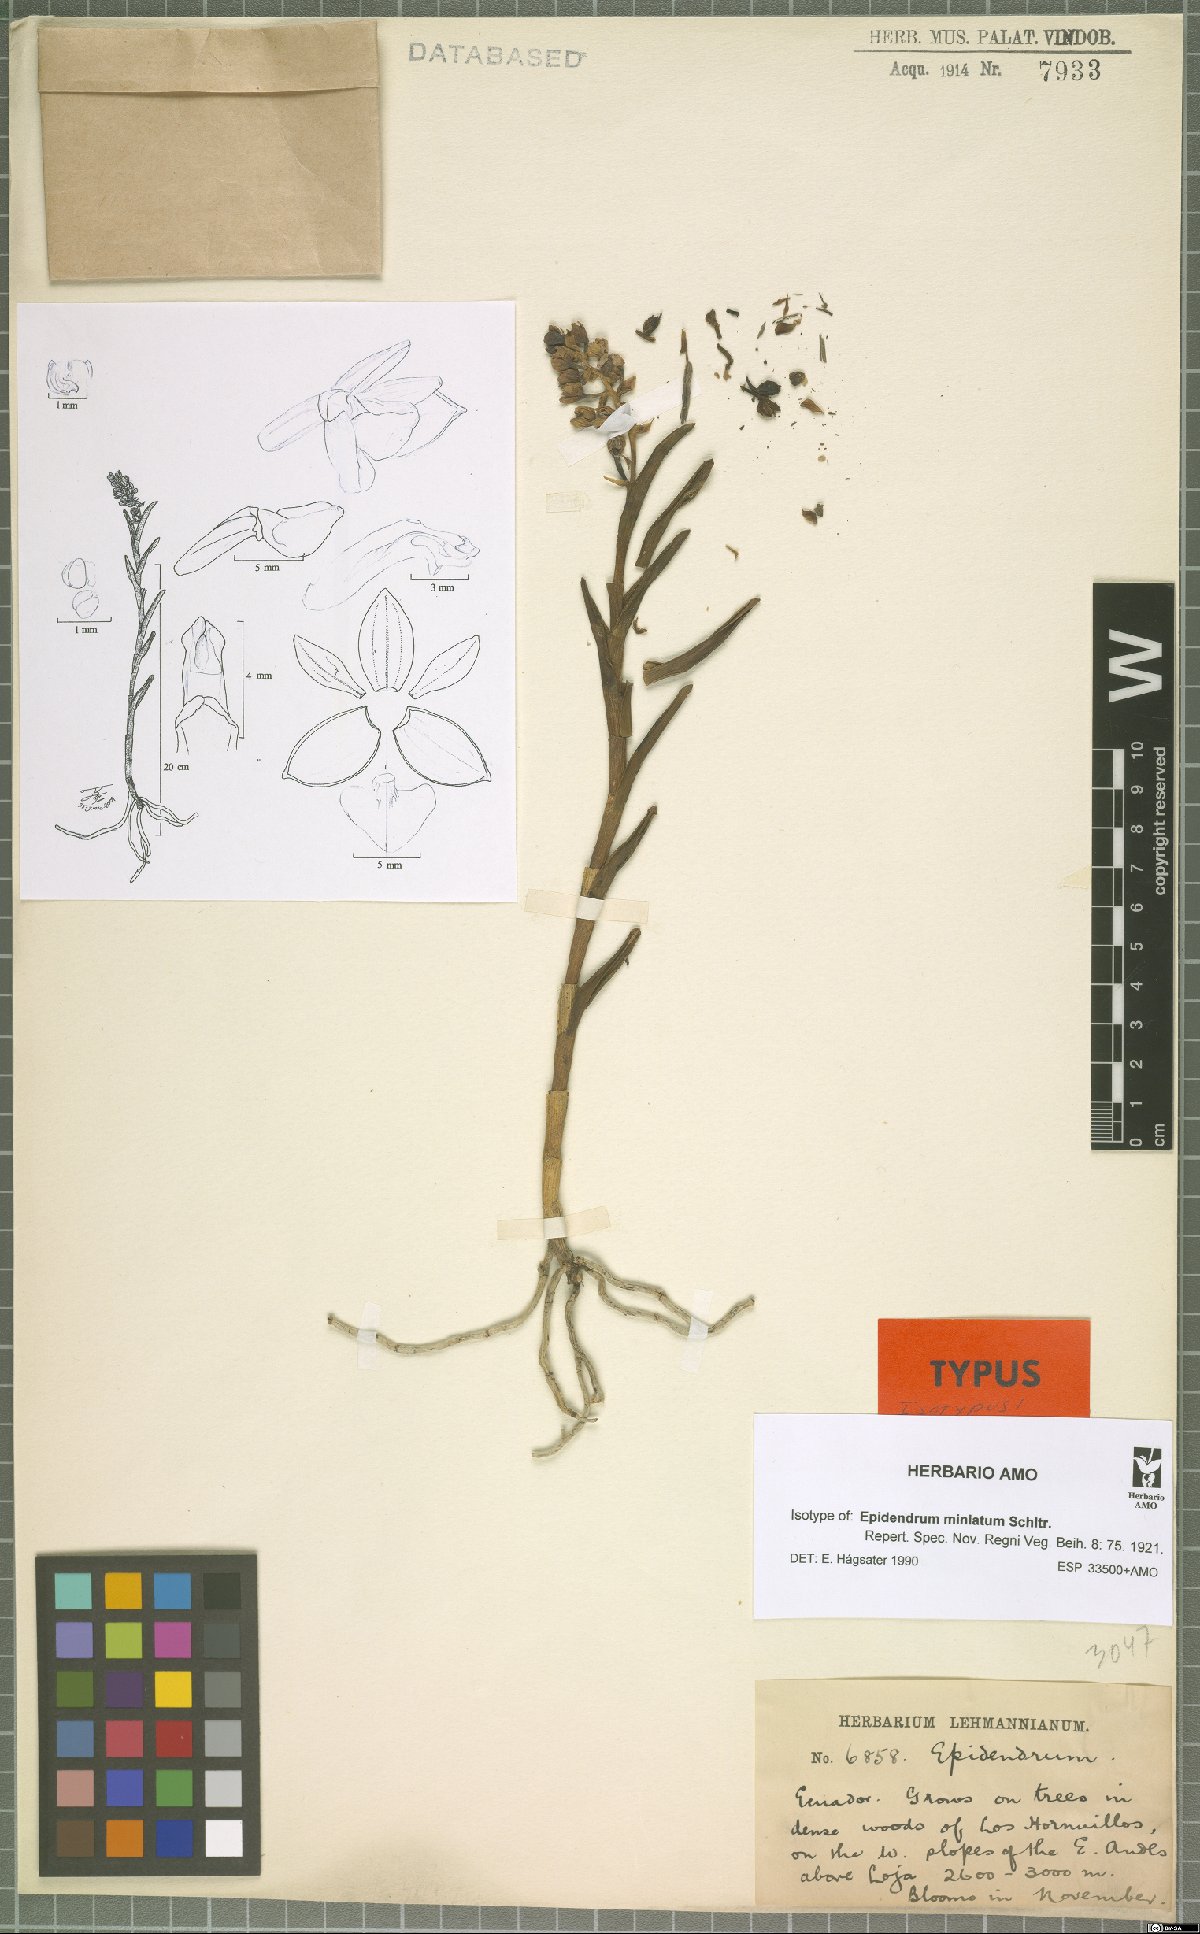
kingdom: Plantae
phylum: Tracheophyta
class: Liliopsida
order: Asparagales
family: Orchidaceae
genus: Epidendrum
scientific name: Epidendrum miniatum
